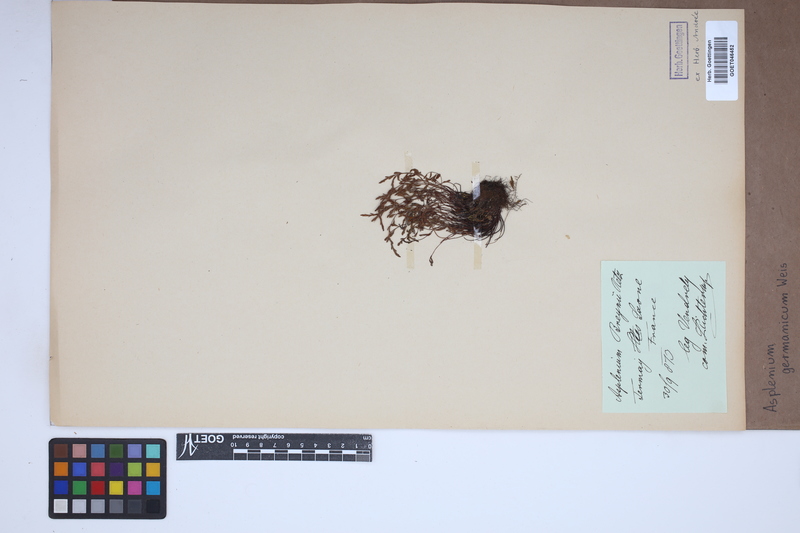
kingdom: Plantae
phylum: Tracheophyta
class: Polypodiopsida
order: Polypodiales
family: Aspleniaceae
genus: Asplenium
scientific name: Asplenium
